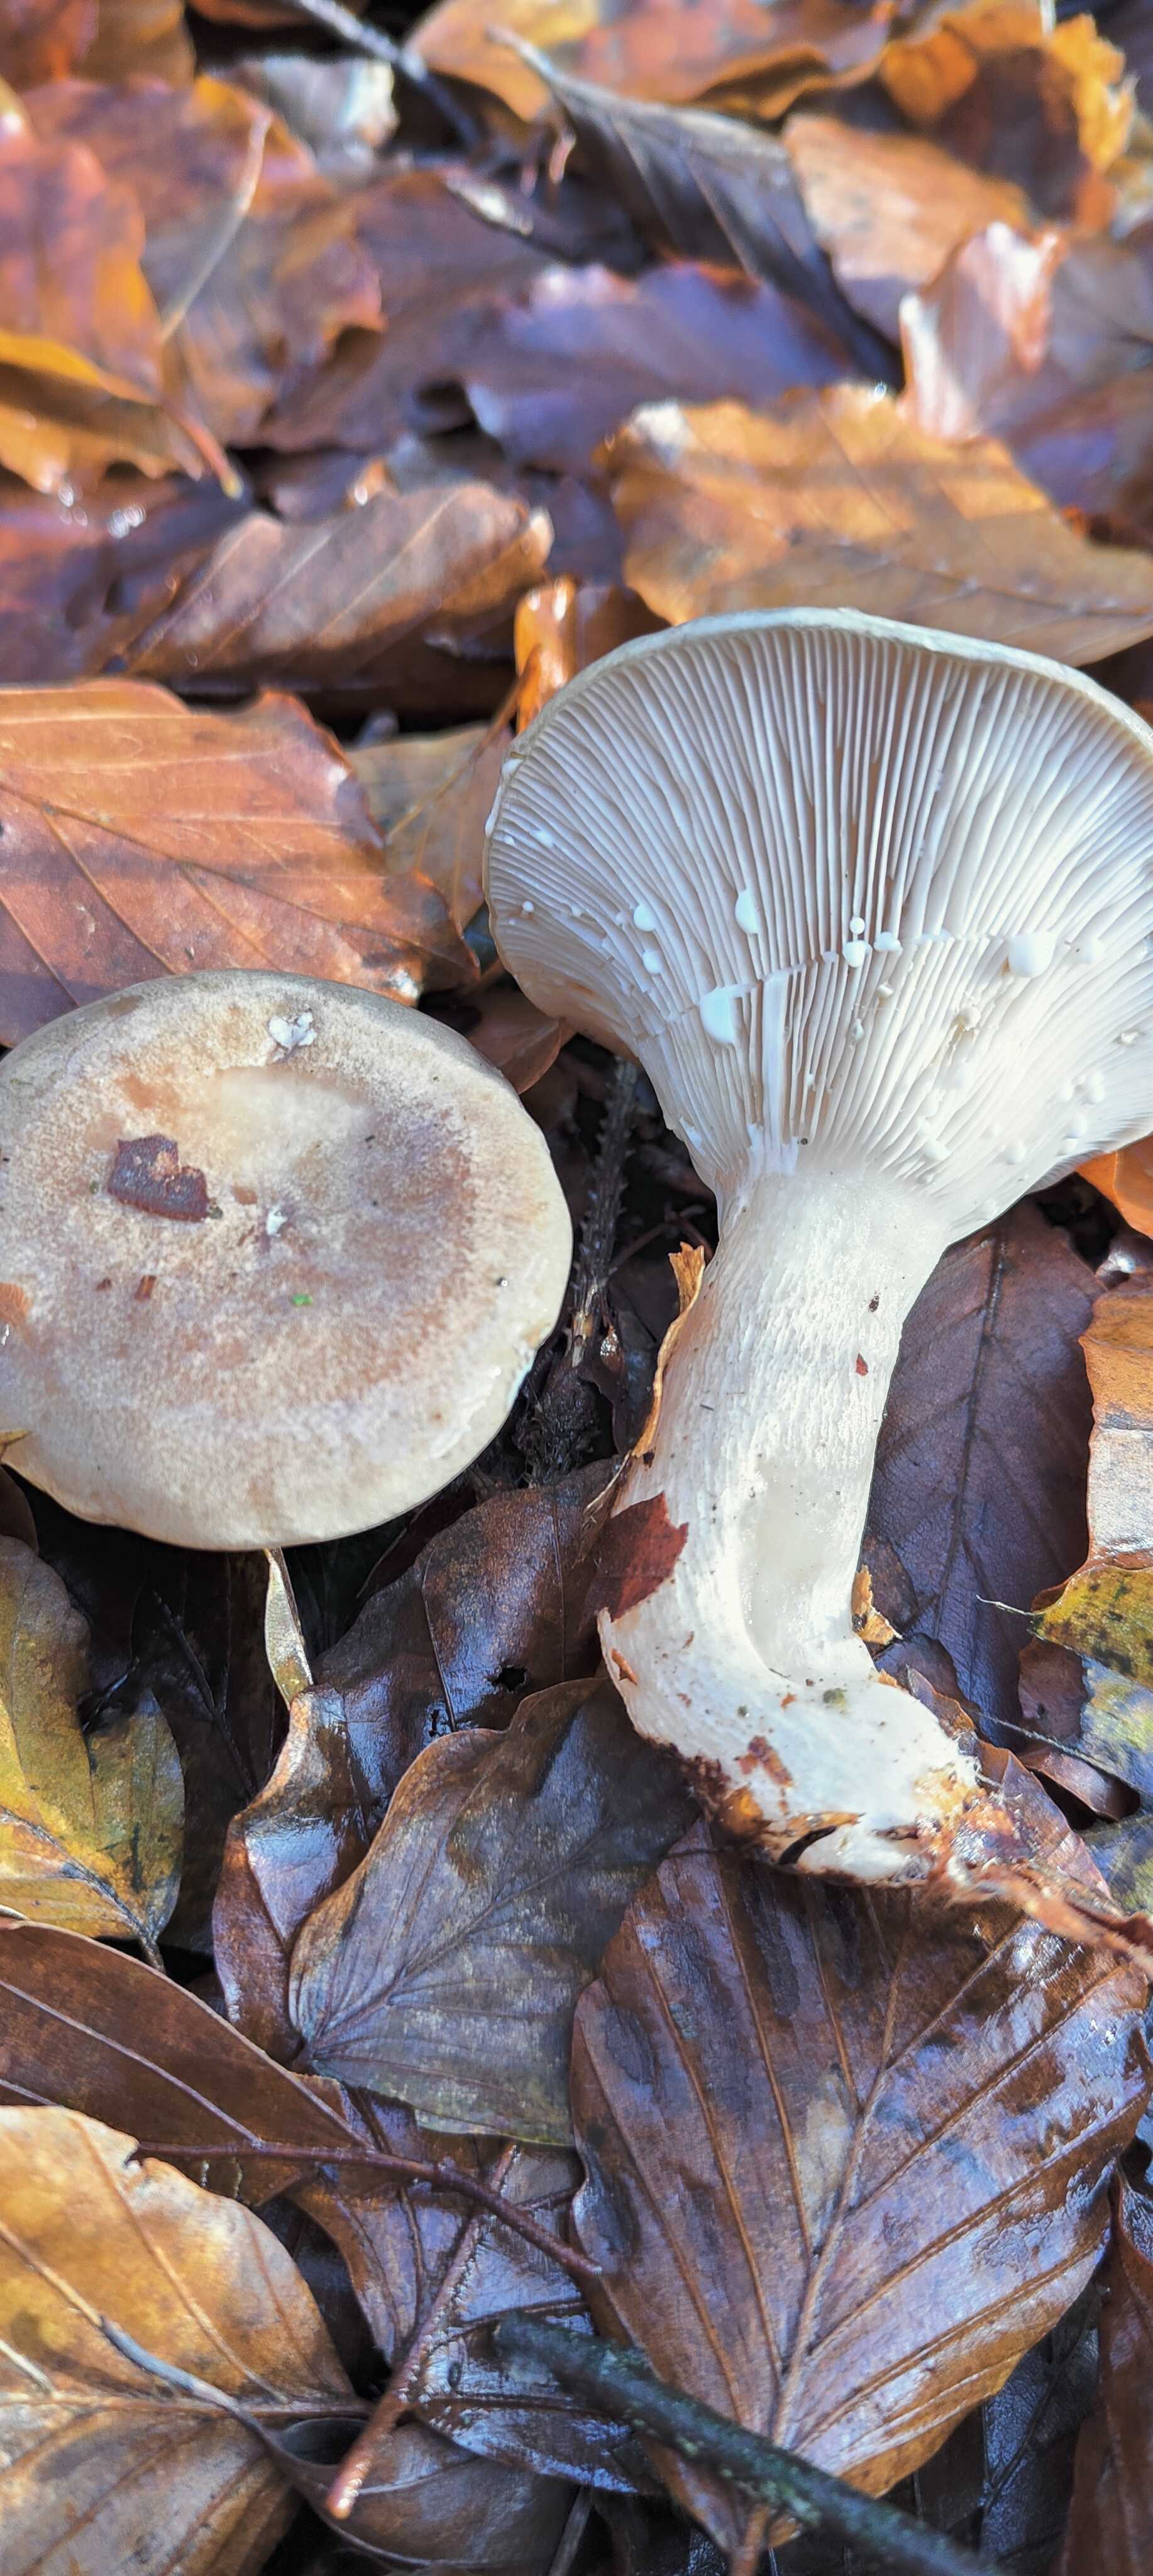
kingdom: Fungi
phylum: Basidiomycota
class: Agaricomycetes
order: Russulales
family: Russulaceae
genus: Lactarius
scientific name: Lactarius blennius
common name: dråbeplettet mælkehat
